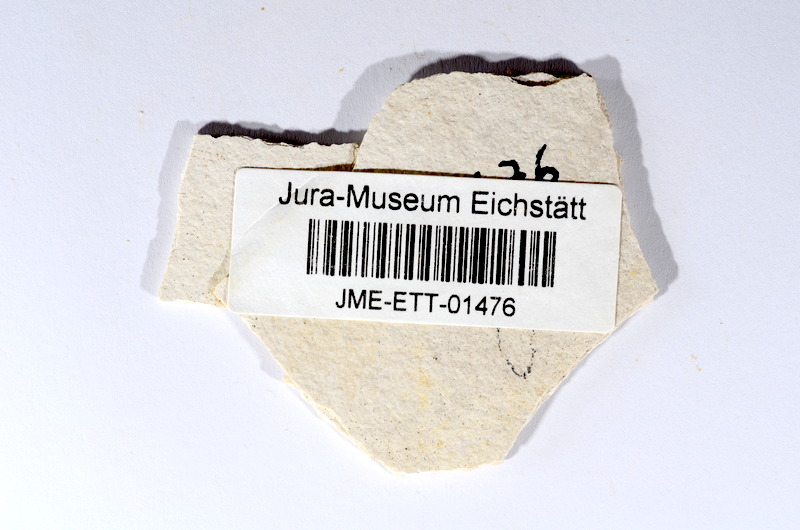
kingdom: Animalia
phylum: Chordata
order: Salmoniformes
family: Orthogonikleithridae
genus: Orthogonikleithrus
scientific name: Orthogonikleithrus hoelli
